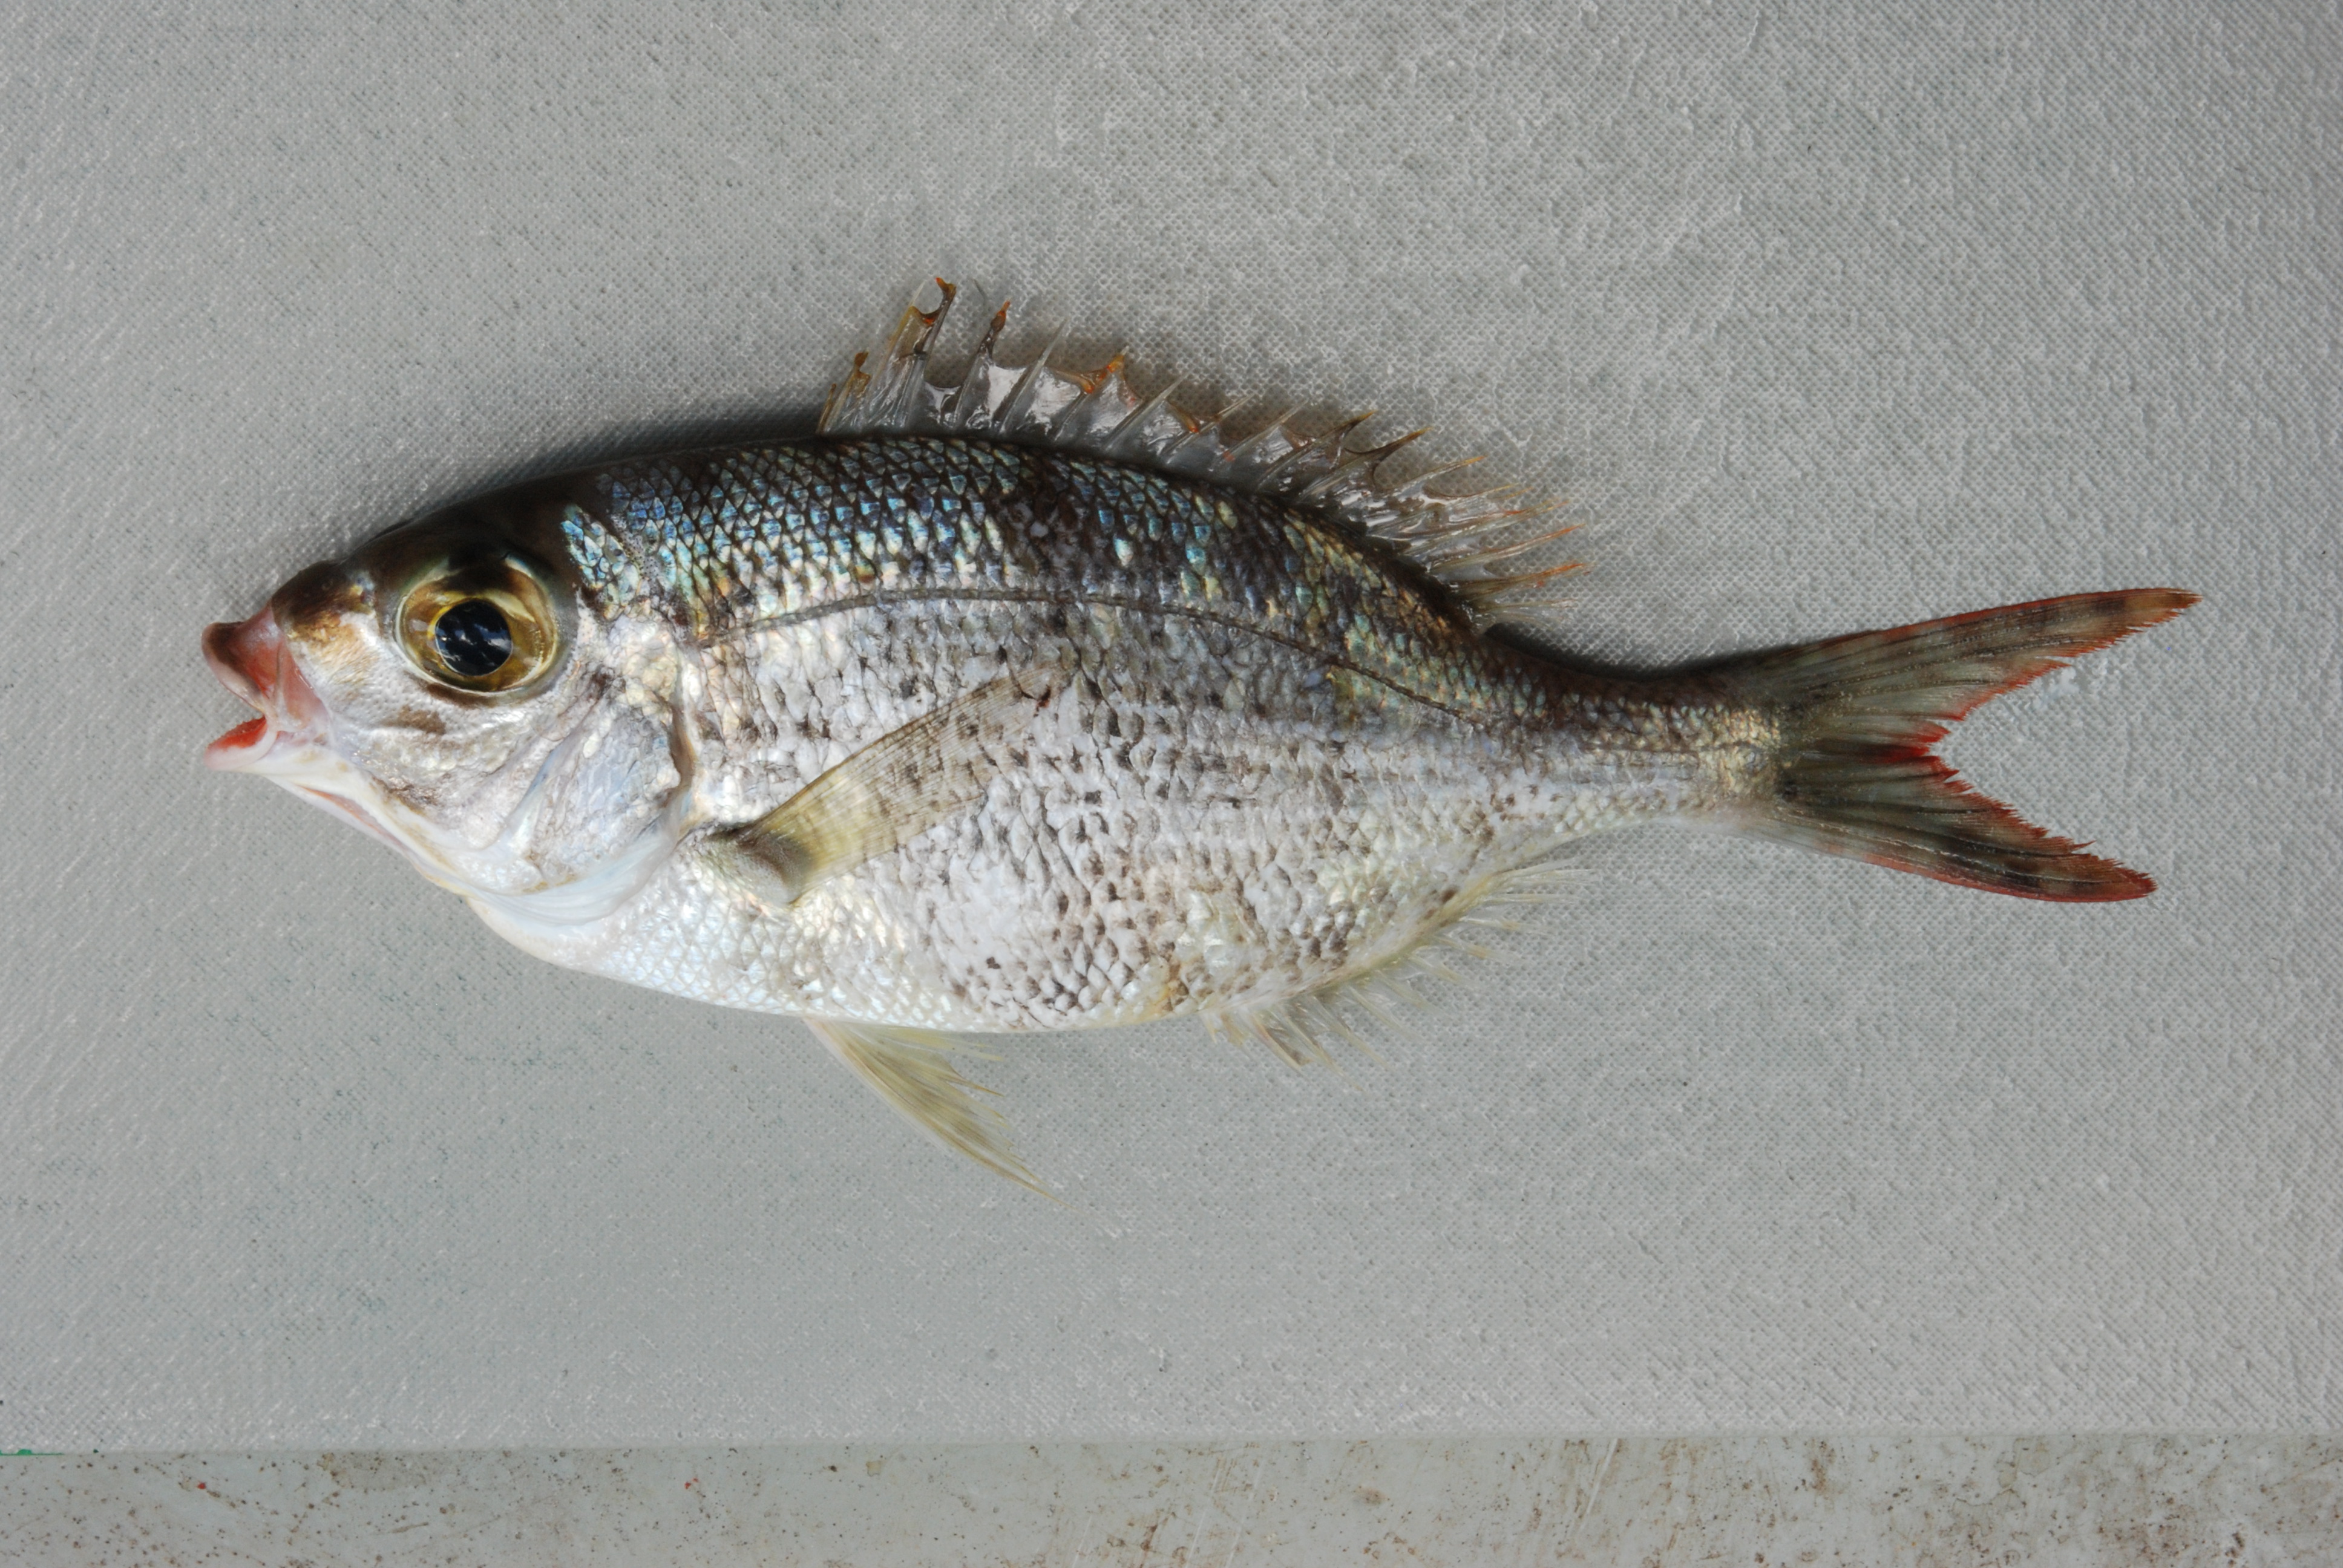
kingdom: Animalia
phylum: Chordata
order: Perciformes
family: Lethrinidae
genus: Gymnocranius
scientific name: Gymnocranius grandoculis
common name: Blue-lined large-eye bream
